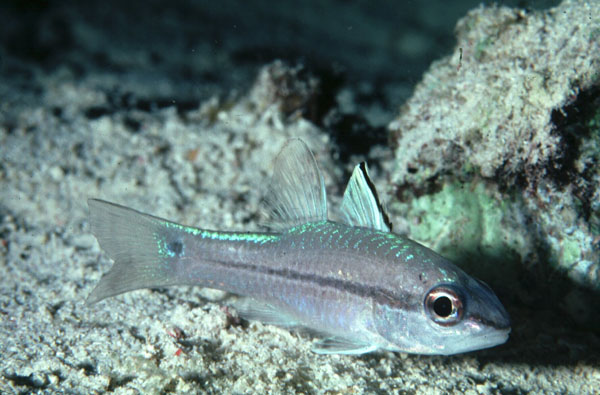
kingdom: Animalia
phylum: Chordata
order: Perciformes
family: Apogonidae
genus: Pristiapogon
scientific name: Pristiapogon exostigma
